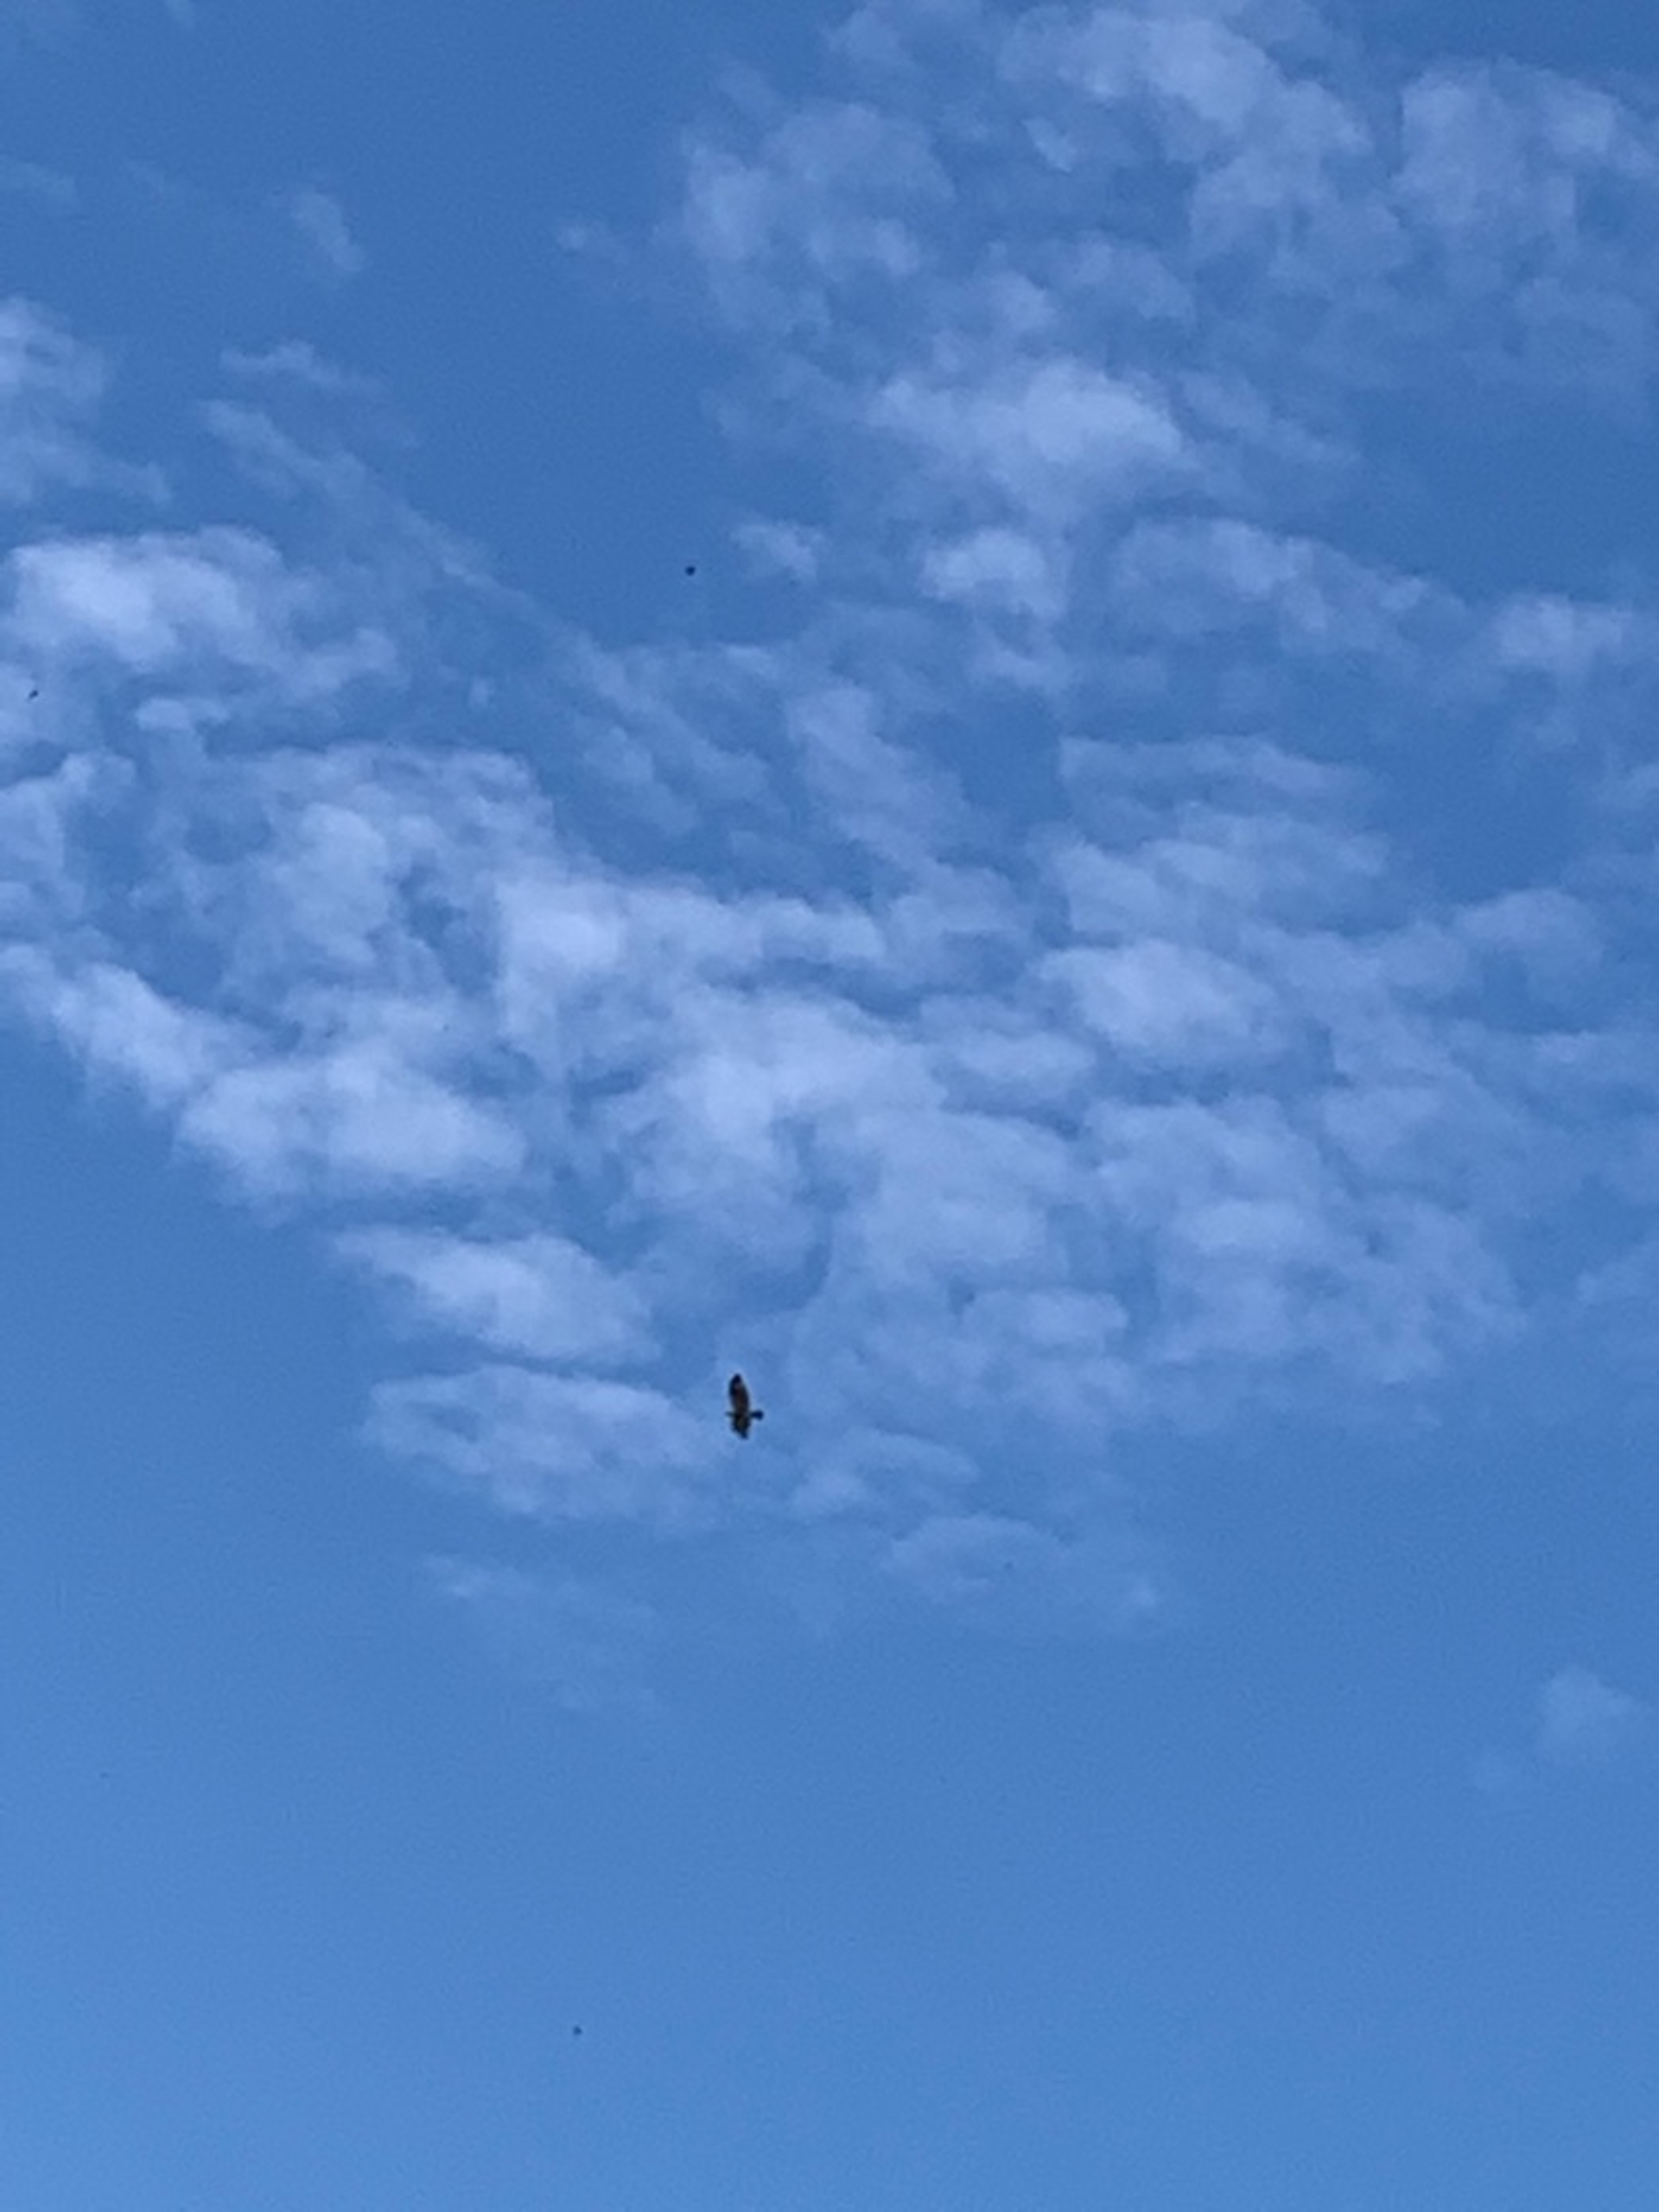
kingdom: Animalia
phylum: Chordata
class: Aves
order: Accipitriformes
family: Accipitridae
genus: Buteo
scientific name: Buteo buteo
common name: Musvåge
